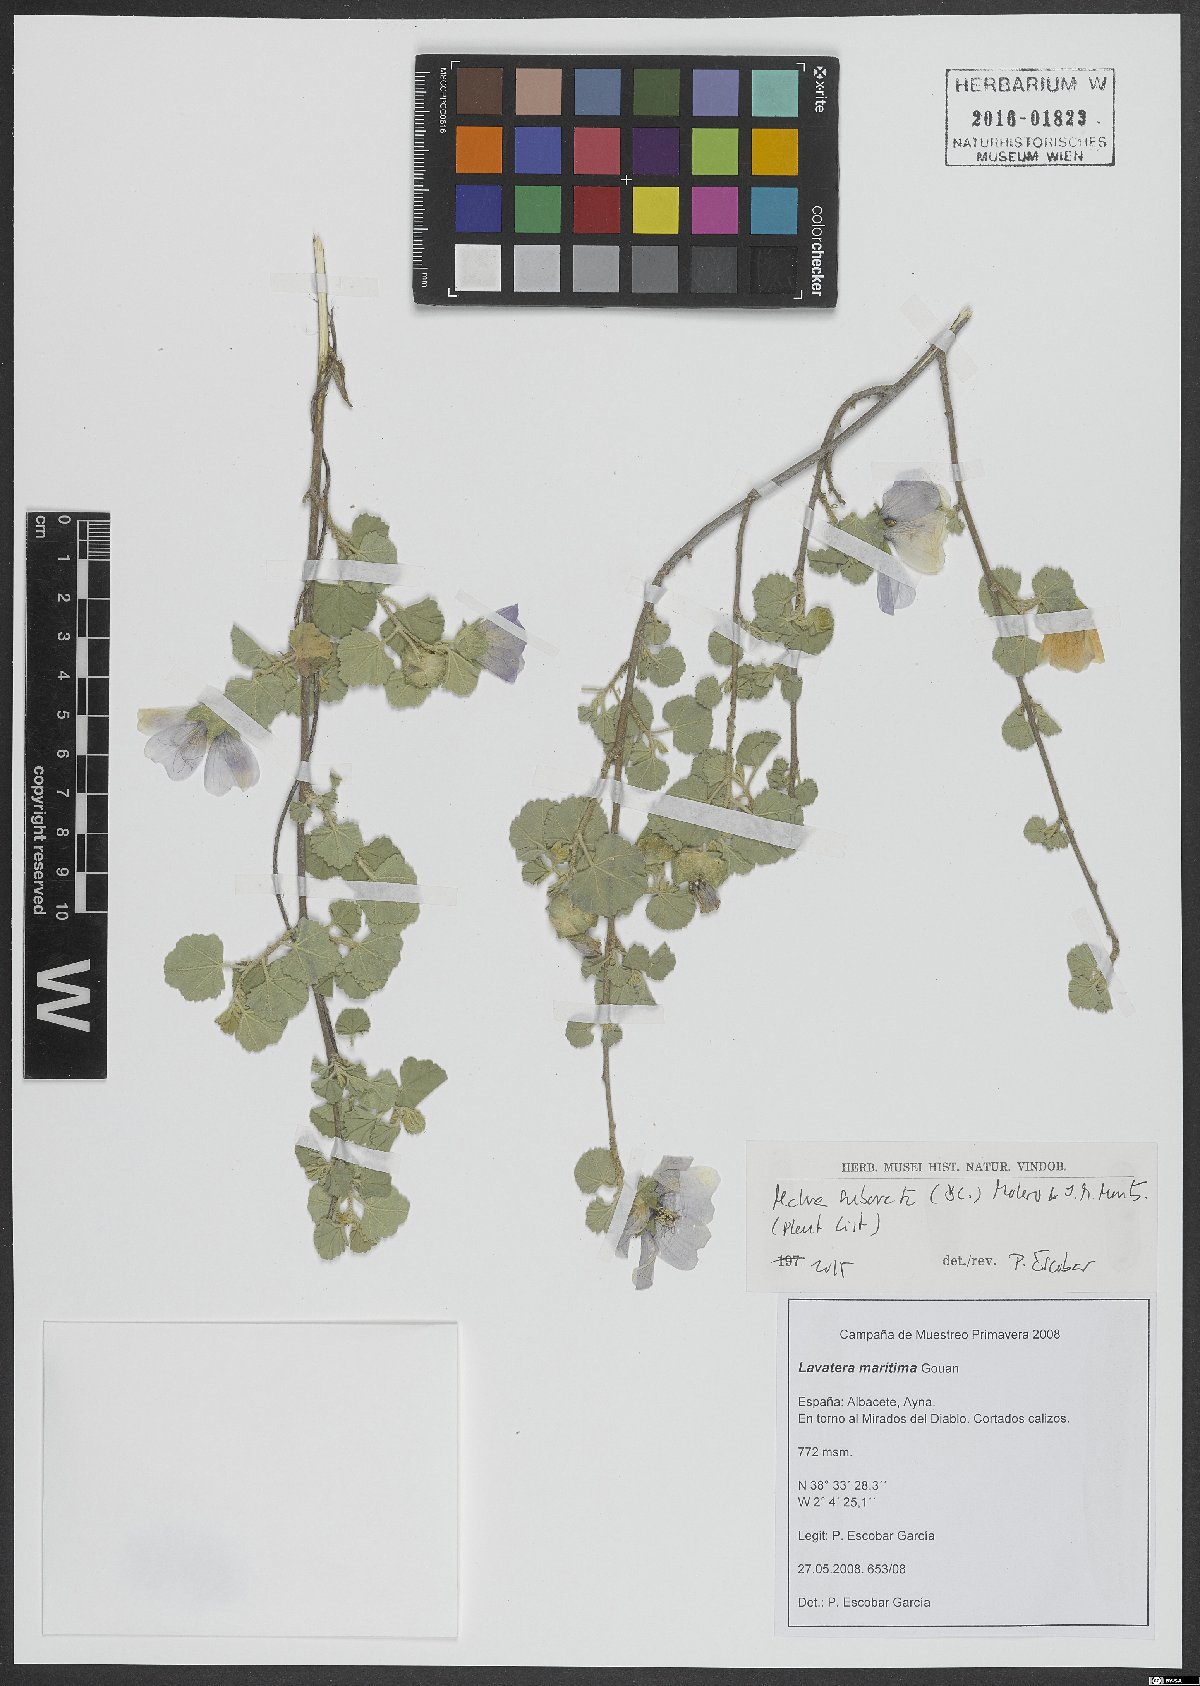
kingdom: Plantae
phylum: Tracheophyta
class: Magnoliopsida
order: Malvales
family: Malvaceae
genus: Malva
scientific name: Malva subovata
